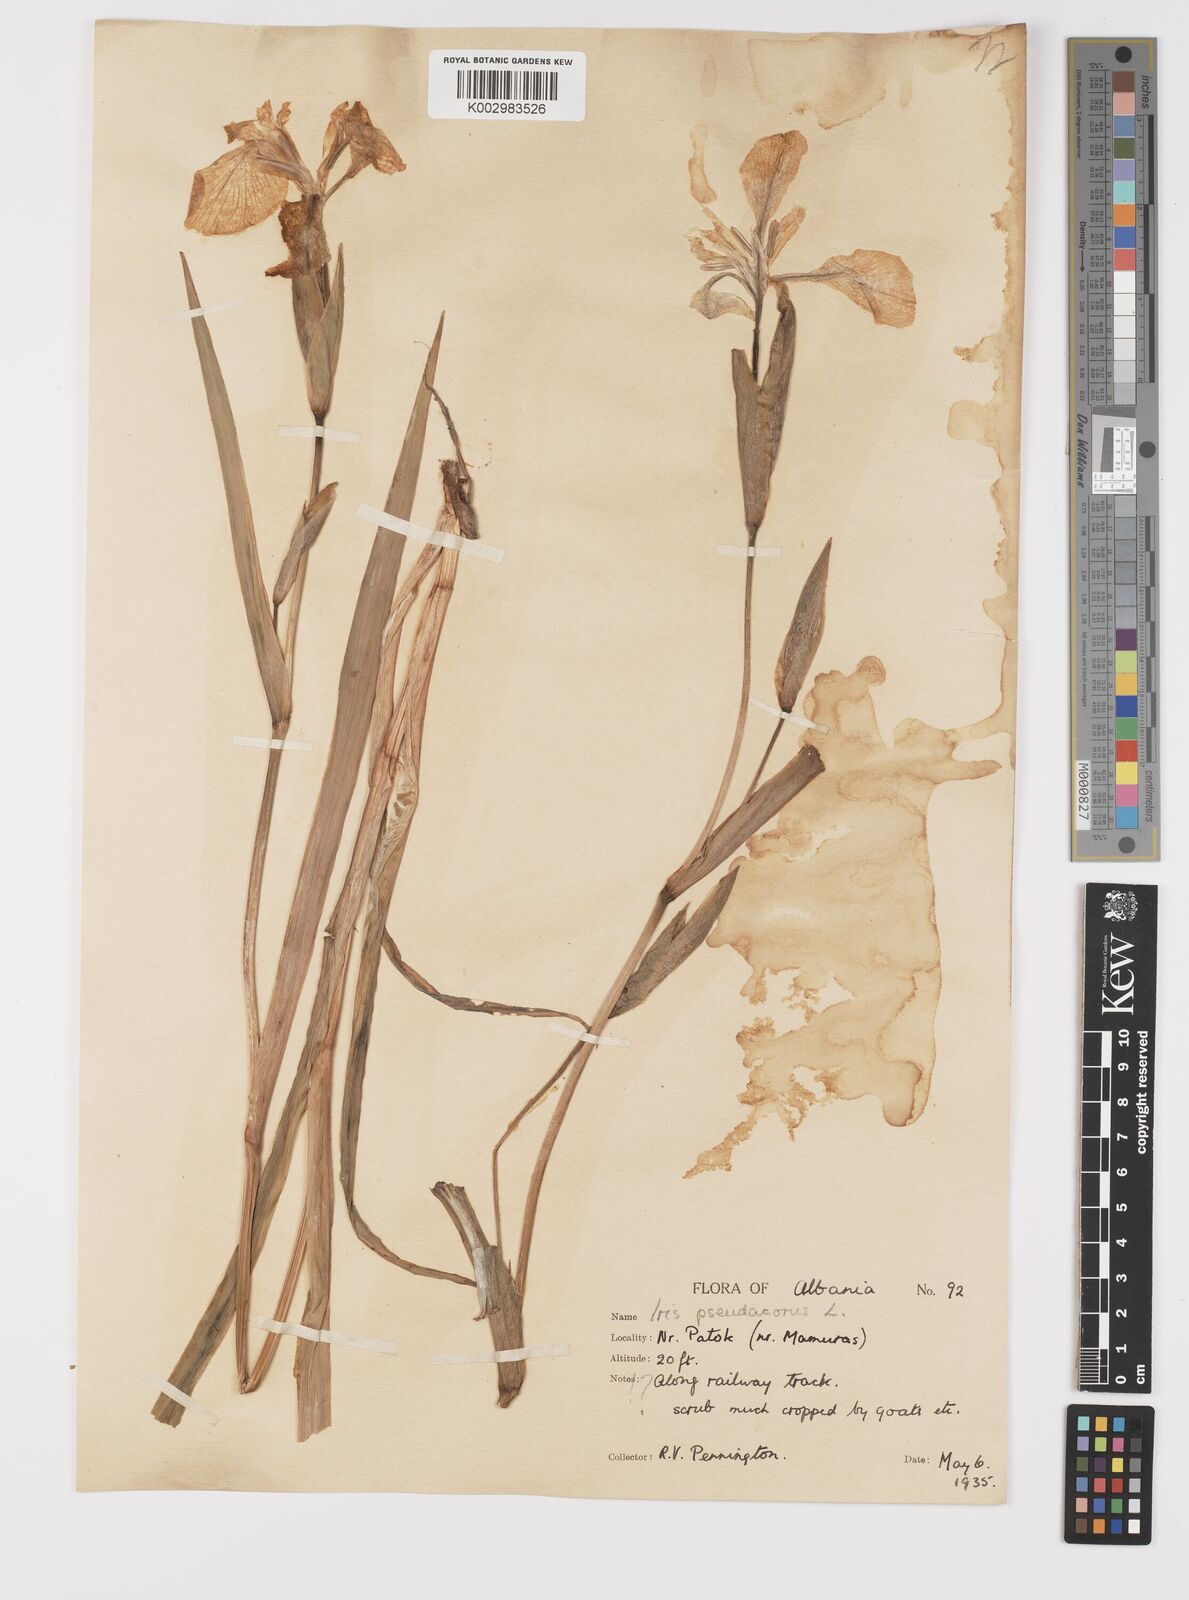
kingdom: Plantae
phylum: Tracheophyta
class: Liliopsida
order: Asparagales
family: Iridaceae
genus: Iris
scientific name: Iris pseudacorus
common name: Yellow flag
